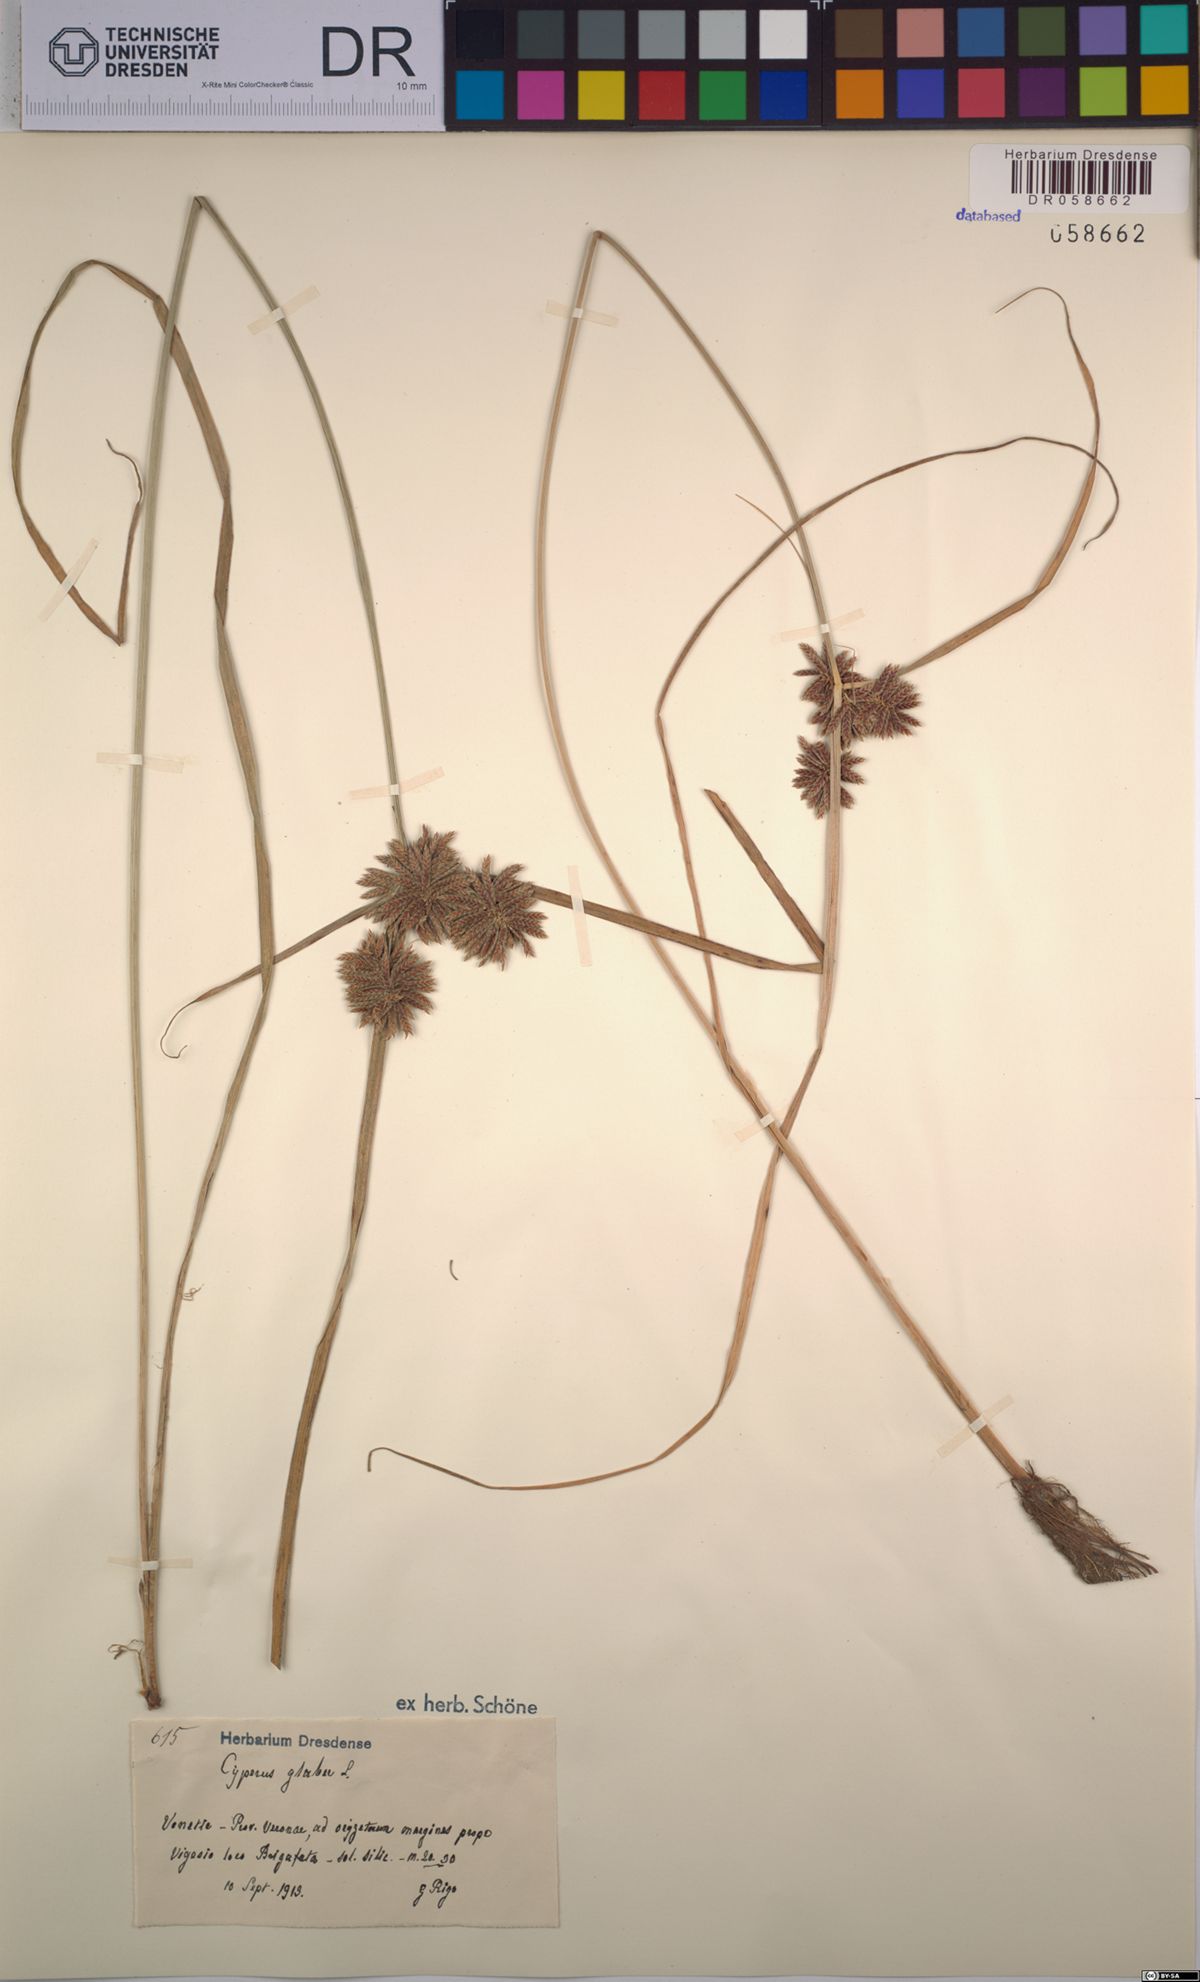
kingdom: Plantae
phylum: Tracheophyta
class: Liliopsida
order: Poales
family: Cyperaceae
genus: Cyperus
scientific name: Cyperus glaber
